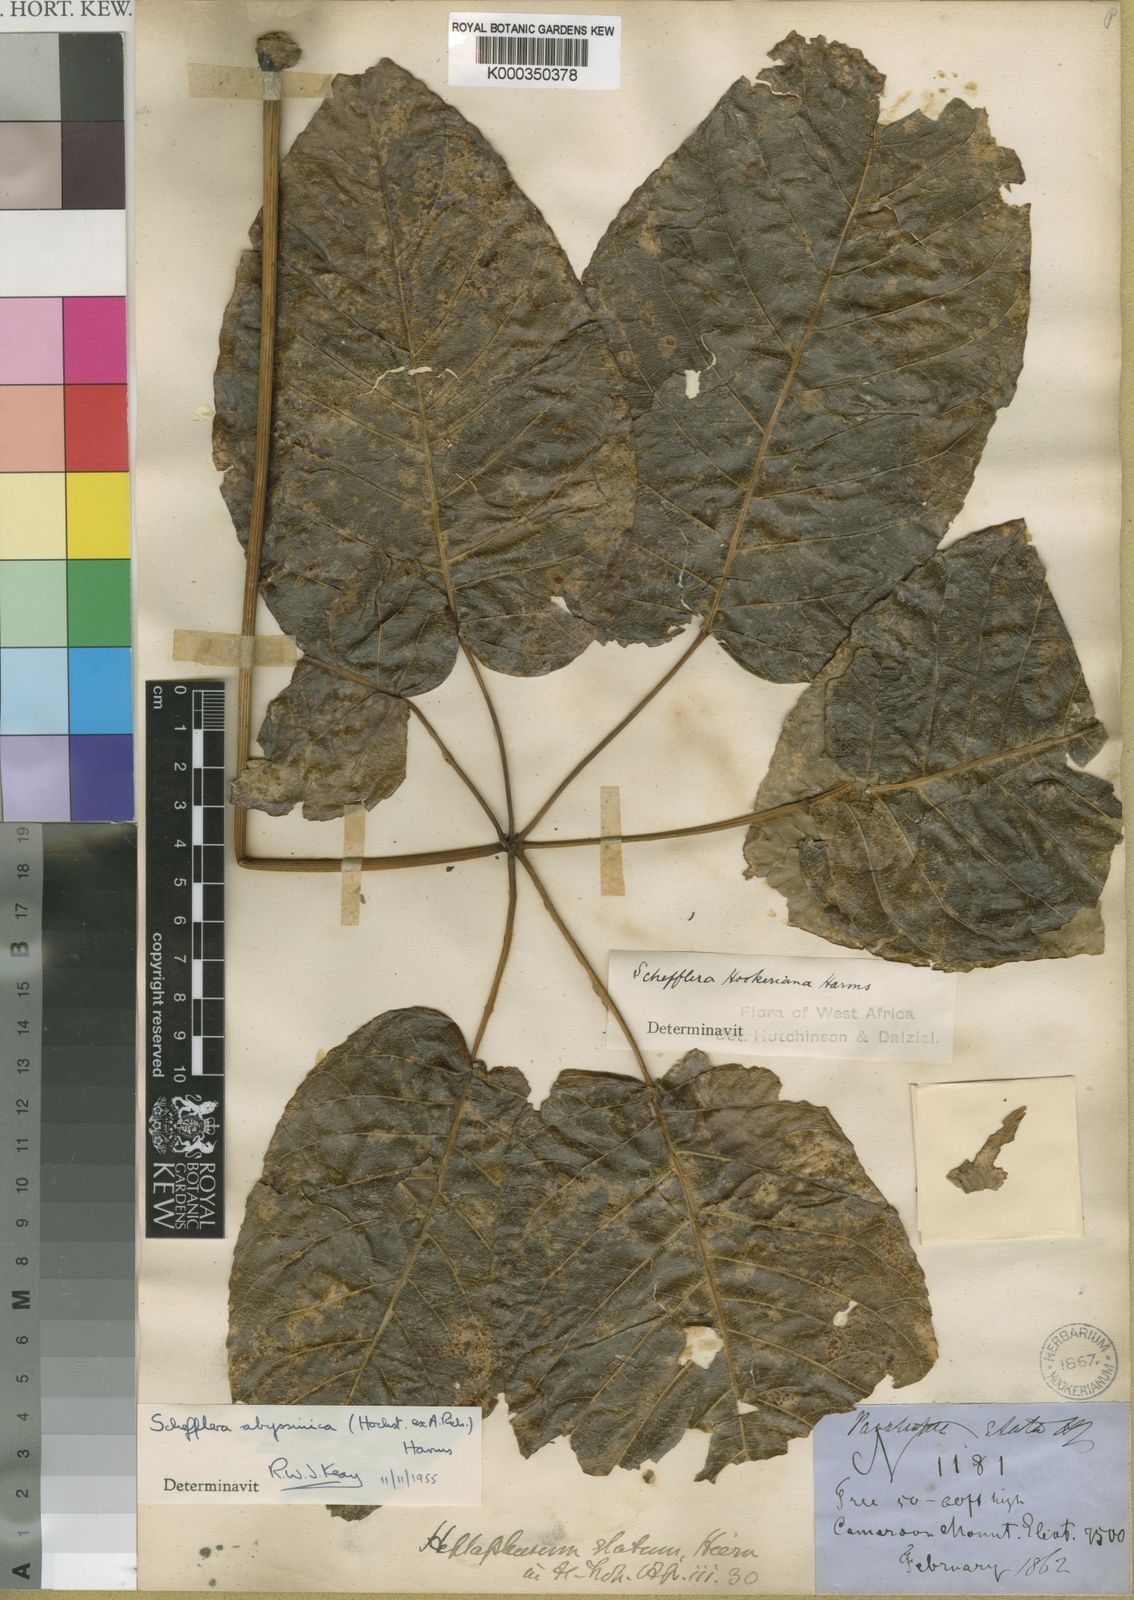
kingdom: Plantae
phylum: Tracheophyta
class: Magnoliopsida
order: Apiales
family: Araliaceae
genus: Astropanax
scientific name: Astropanax abyssinicum
